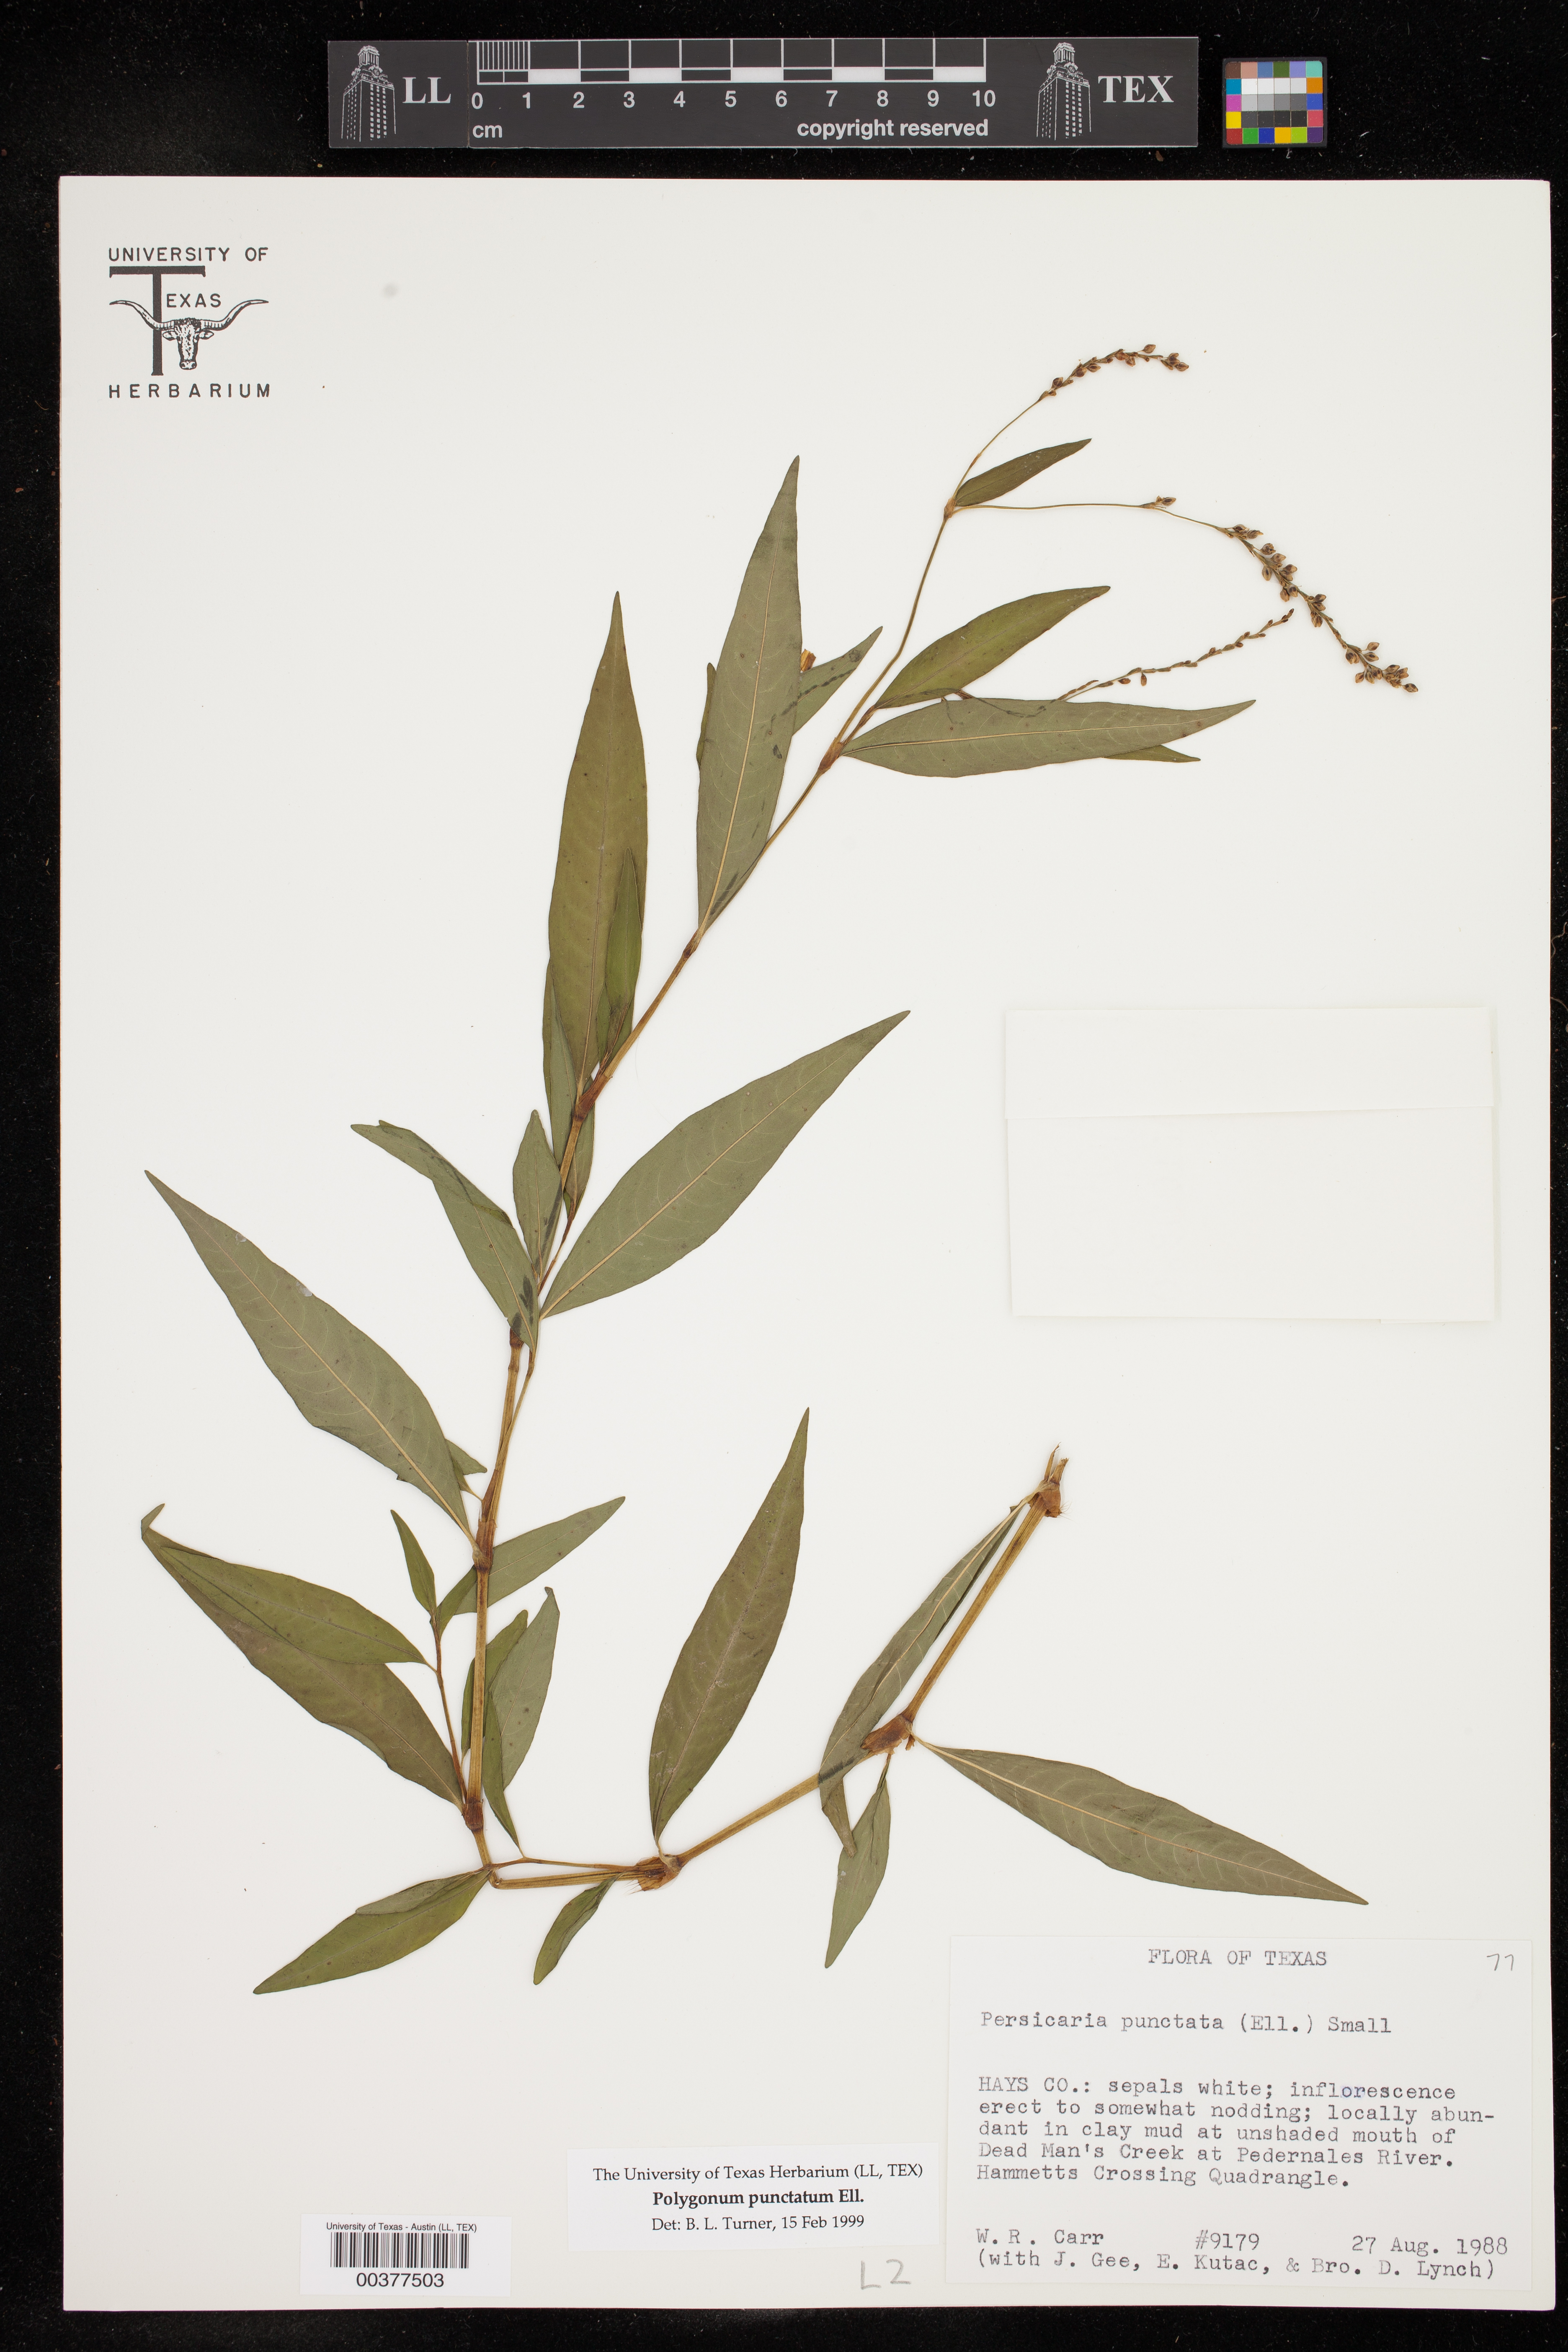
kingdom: Plantae
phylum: Tracheophyta
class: Magnoliopsida
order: Caryophyllales
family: Polygonaceae
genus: Persicaria
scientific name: Persicaria punctata
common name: Dotted smartweed
